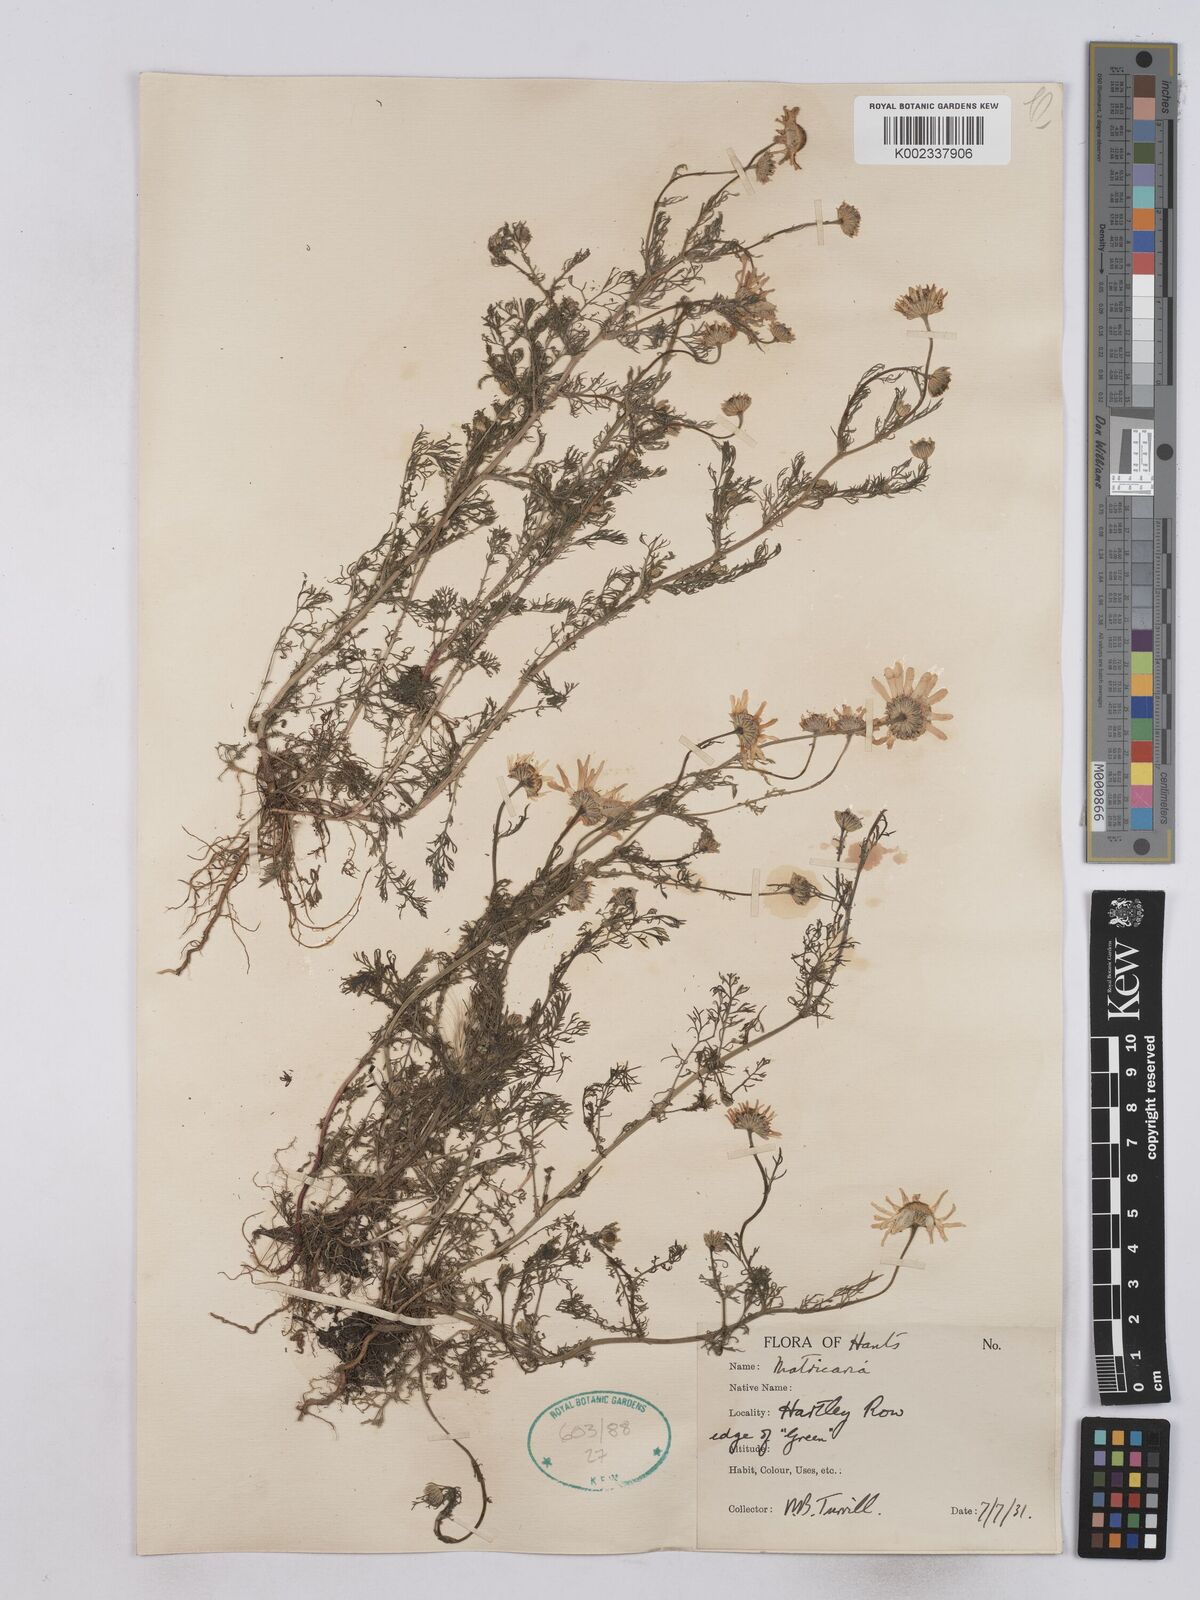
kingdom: Plantae
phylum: Tracheophyta
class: Magnoliopsida
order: Asterales
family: Asteraceae
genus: Matricaria
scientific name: Matricaria discoidea
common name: Disc mayweed
